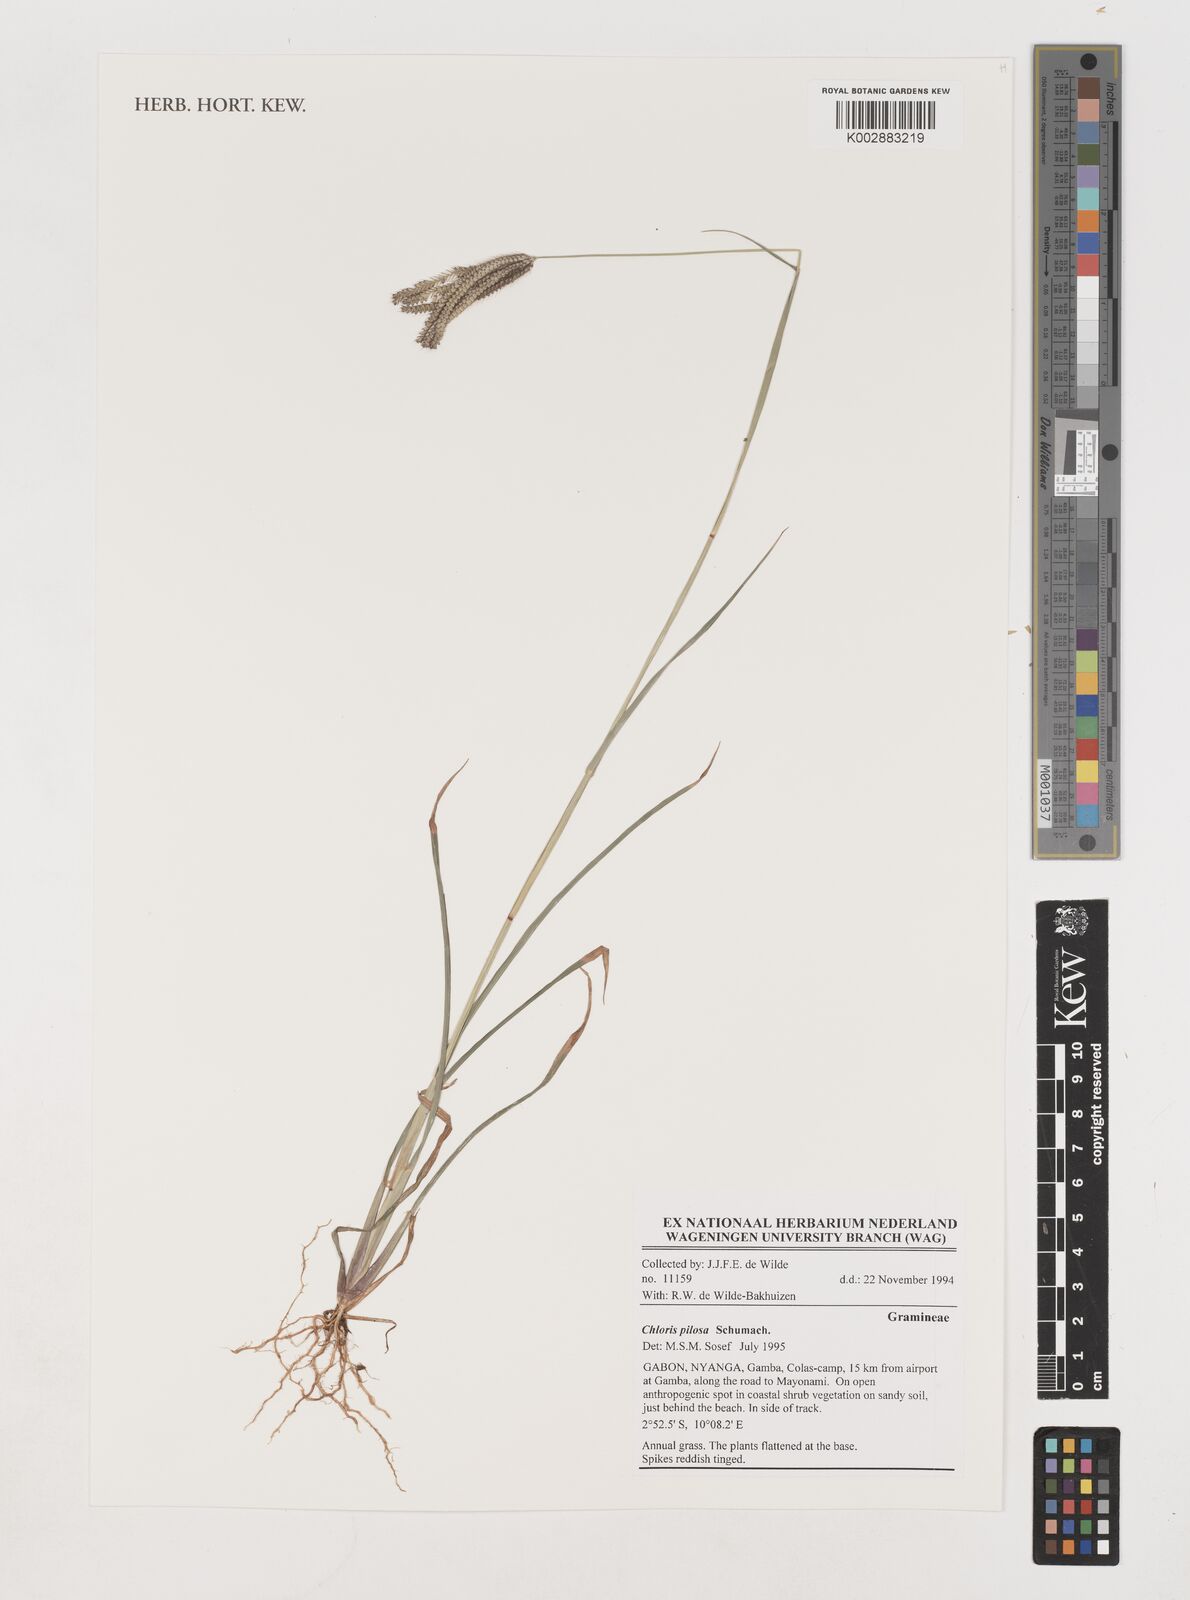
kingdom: Plantae
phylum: Tracheophyta
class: Liliopsida
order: Poales
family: Poaceae
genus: Chloris
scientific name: Chloris pilosa
